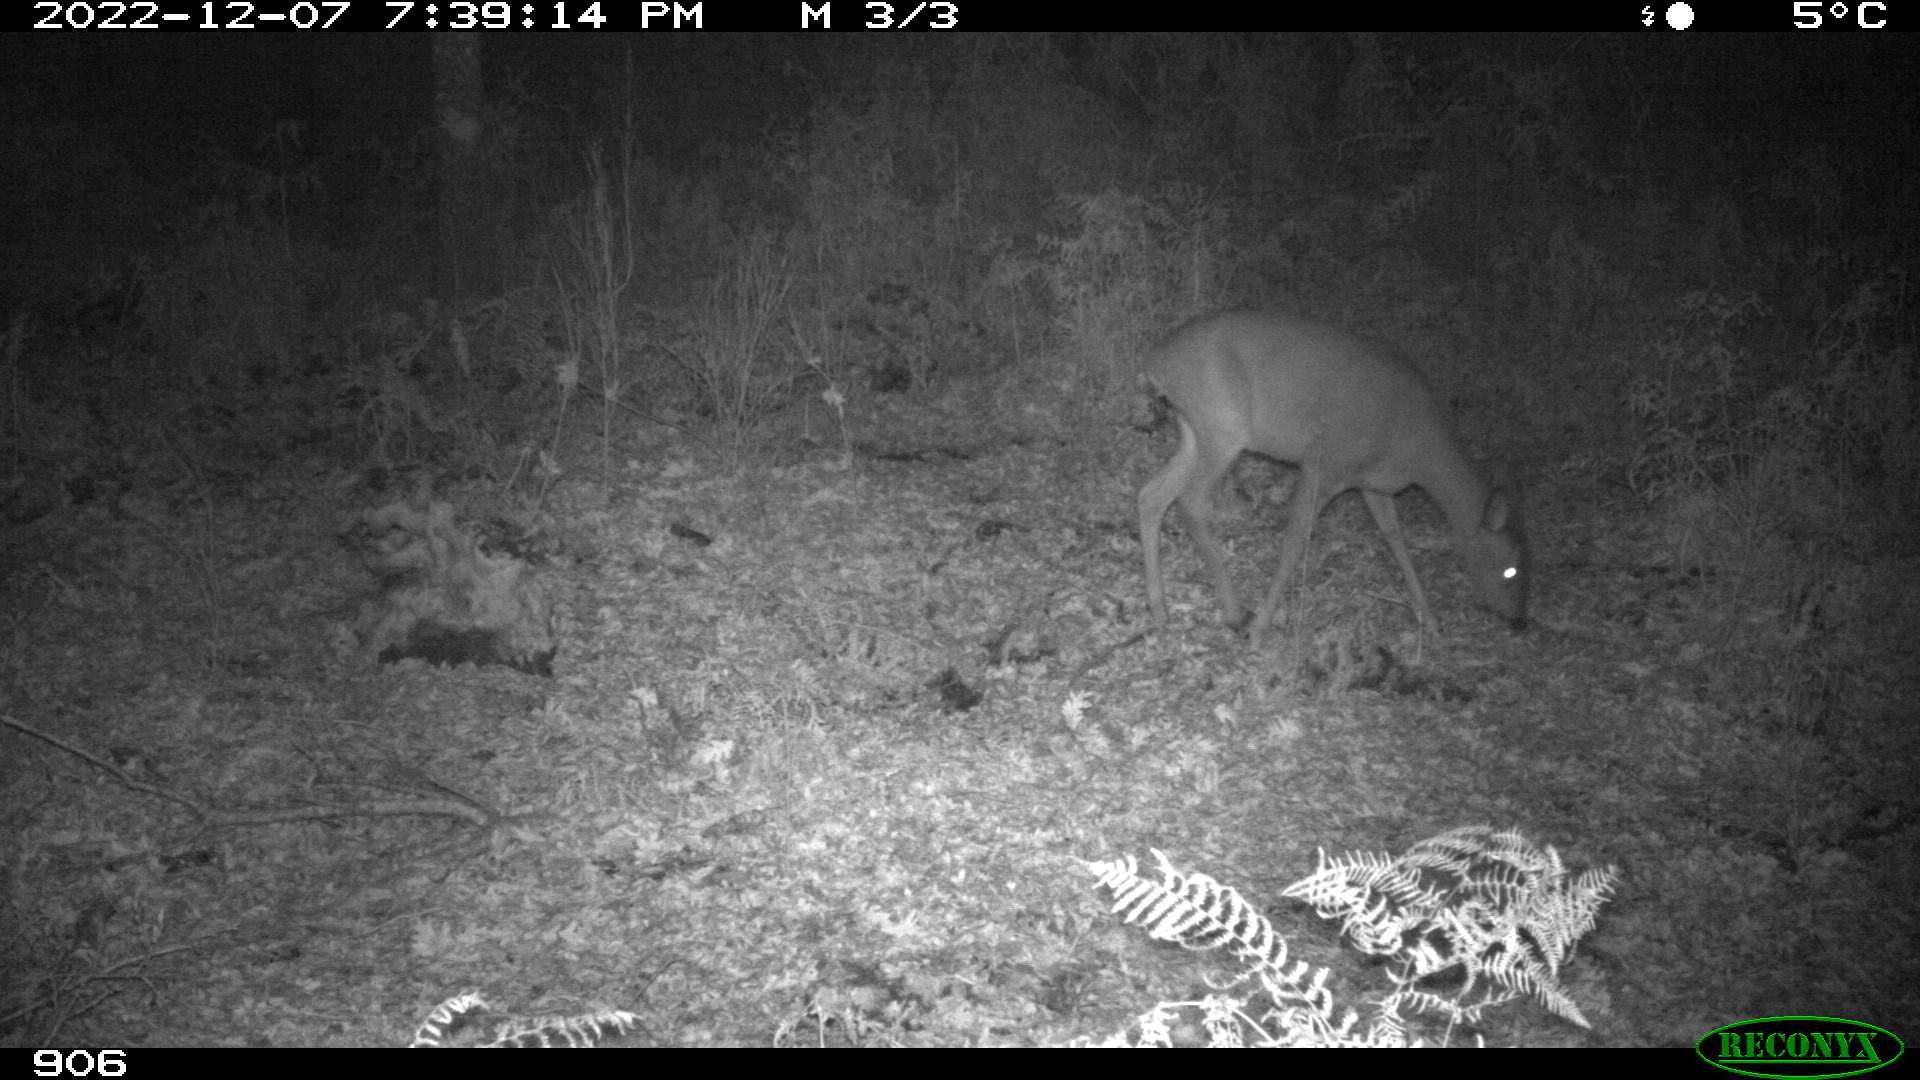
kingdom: Animalia
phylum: Chordata
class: Mammalia
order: Artiodactyla
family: Cervidae
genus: Capreolus
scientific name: Capreolus capreolus
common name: Western roe deer
